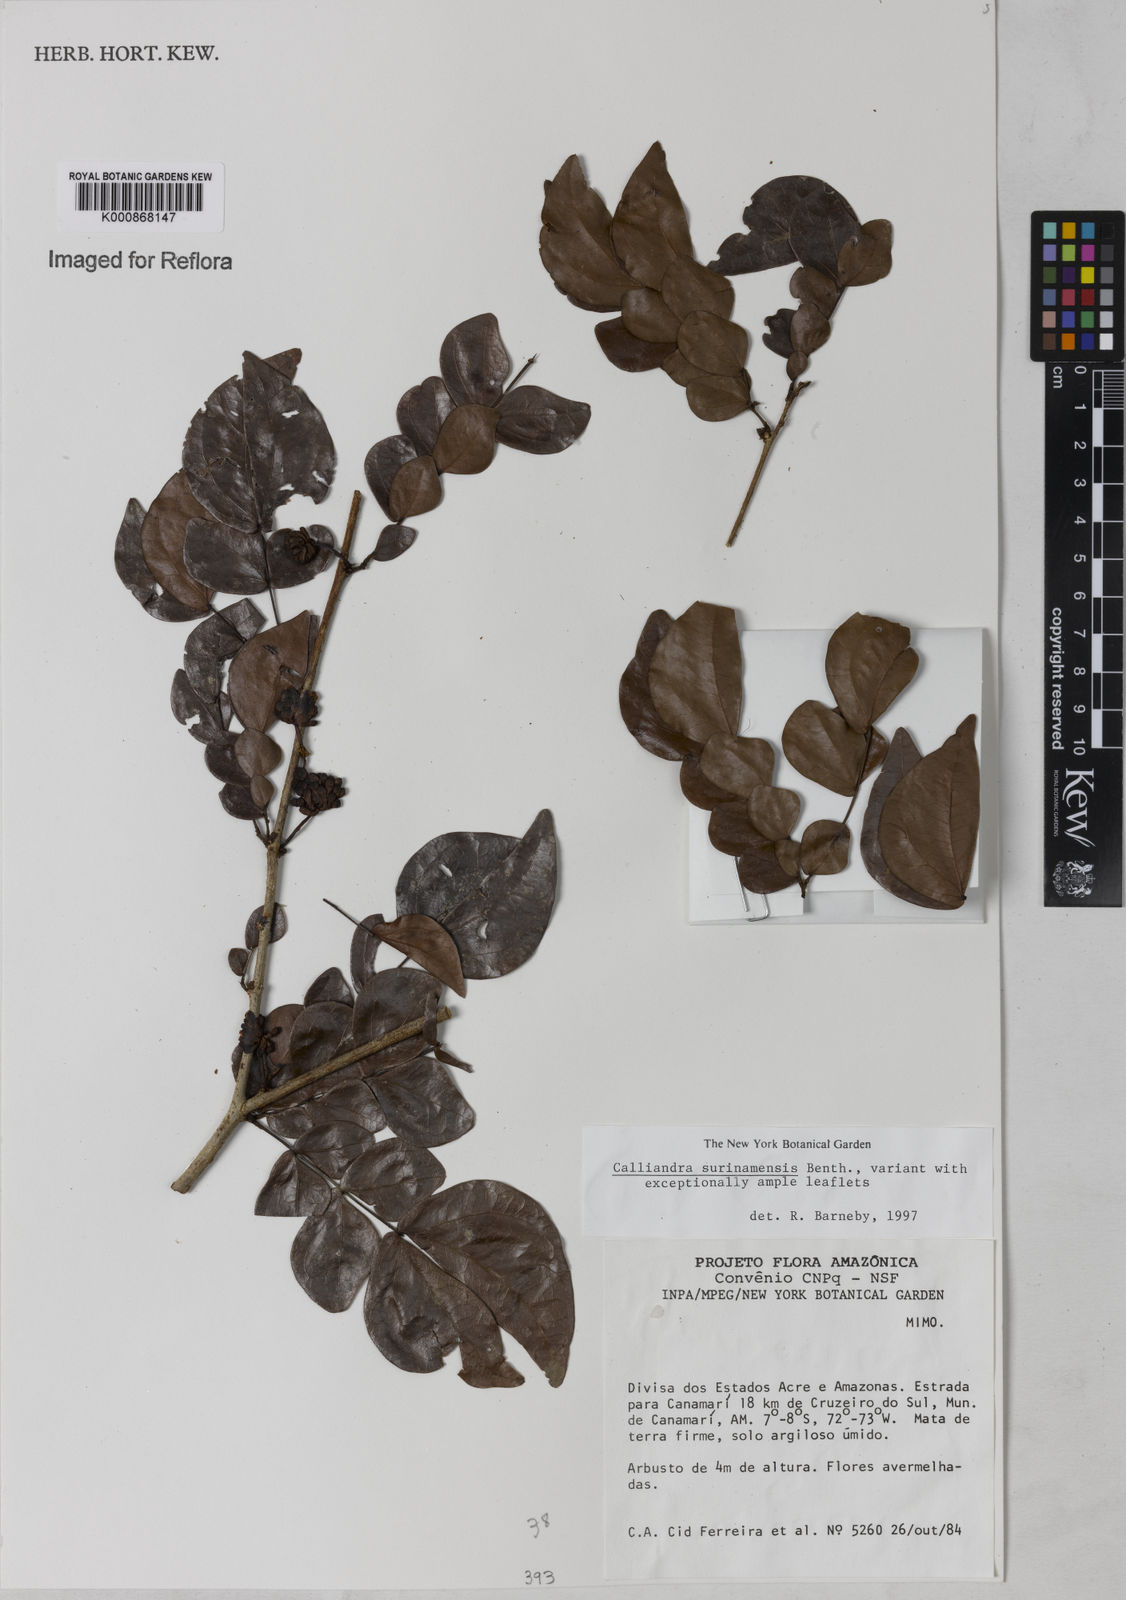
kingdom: Plantae
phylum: Tracheophyta
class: Magnoliopsida
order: Fabales
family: Fabaceae
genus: Calliandra
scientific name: Calliandra surinamensis
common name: Pink powder puff
